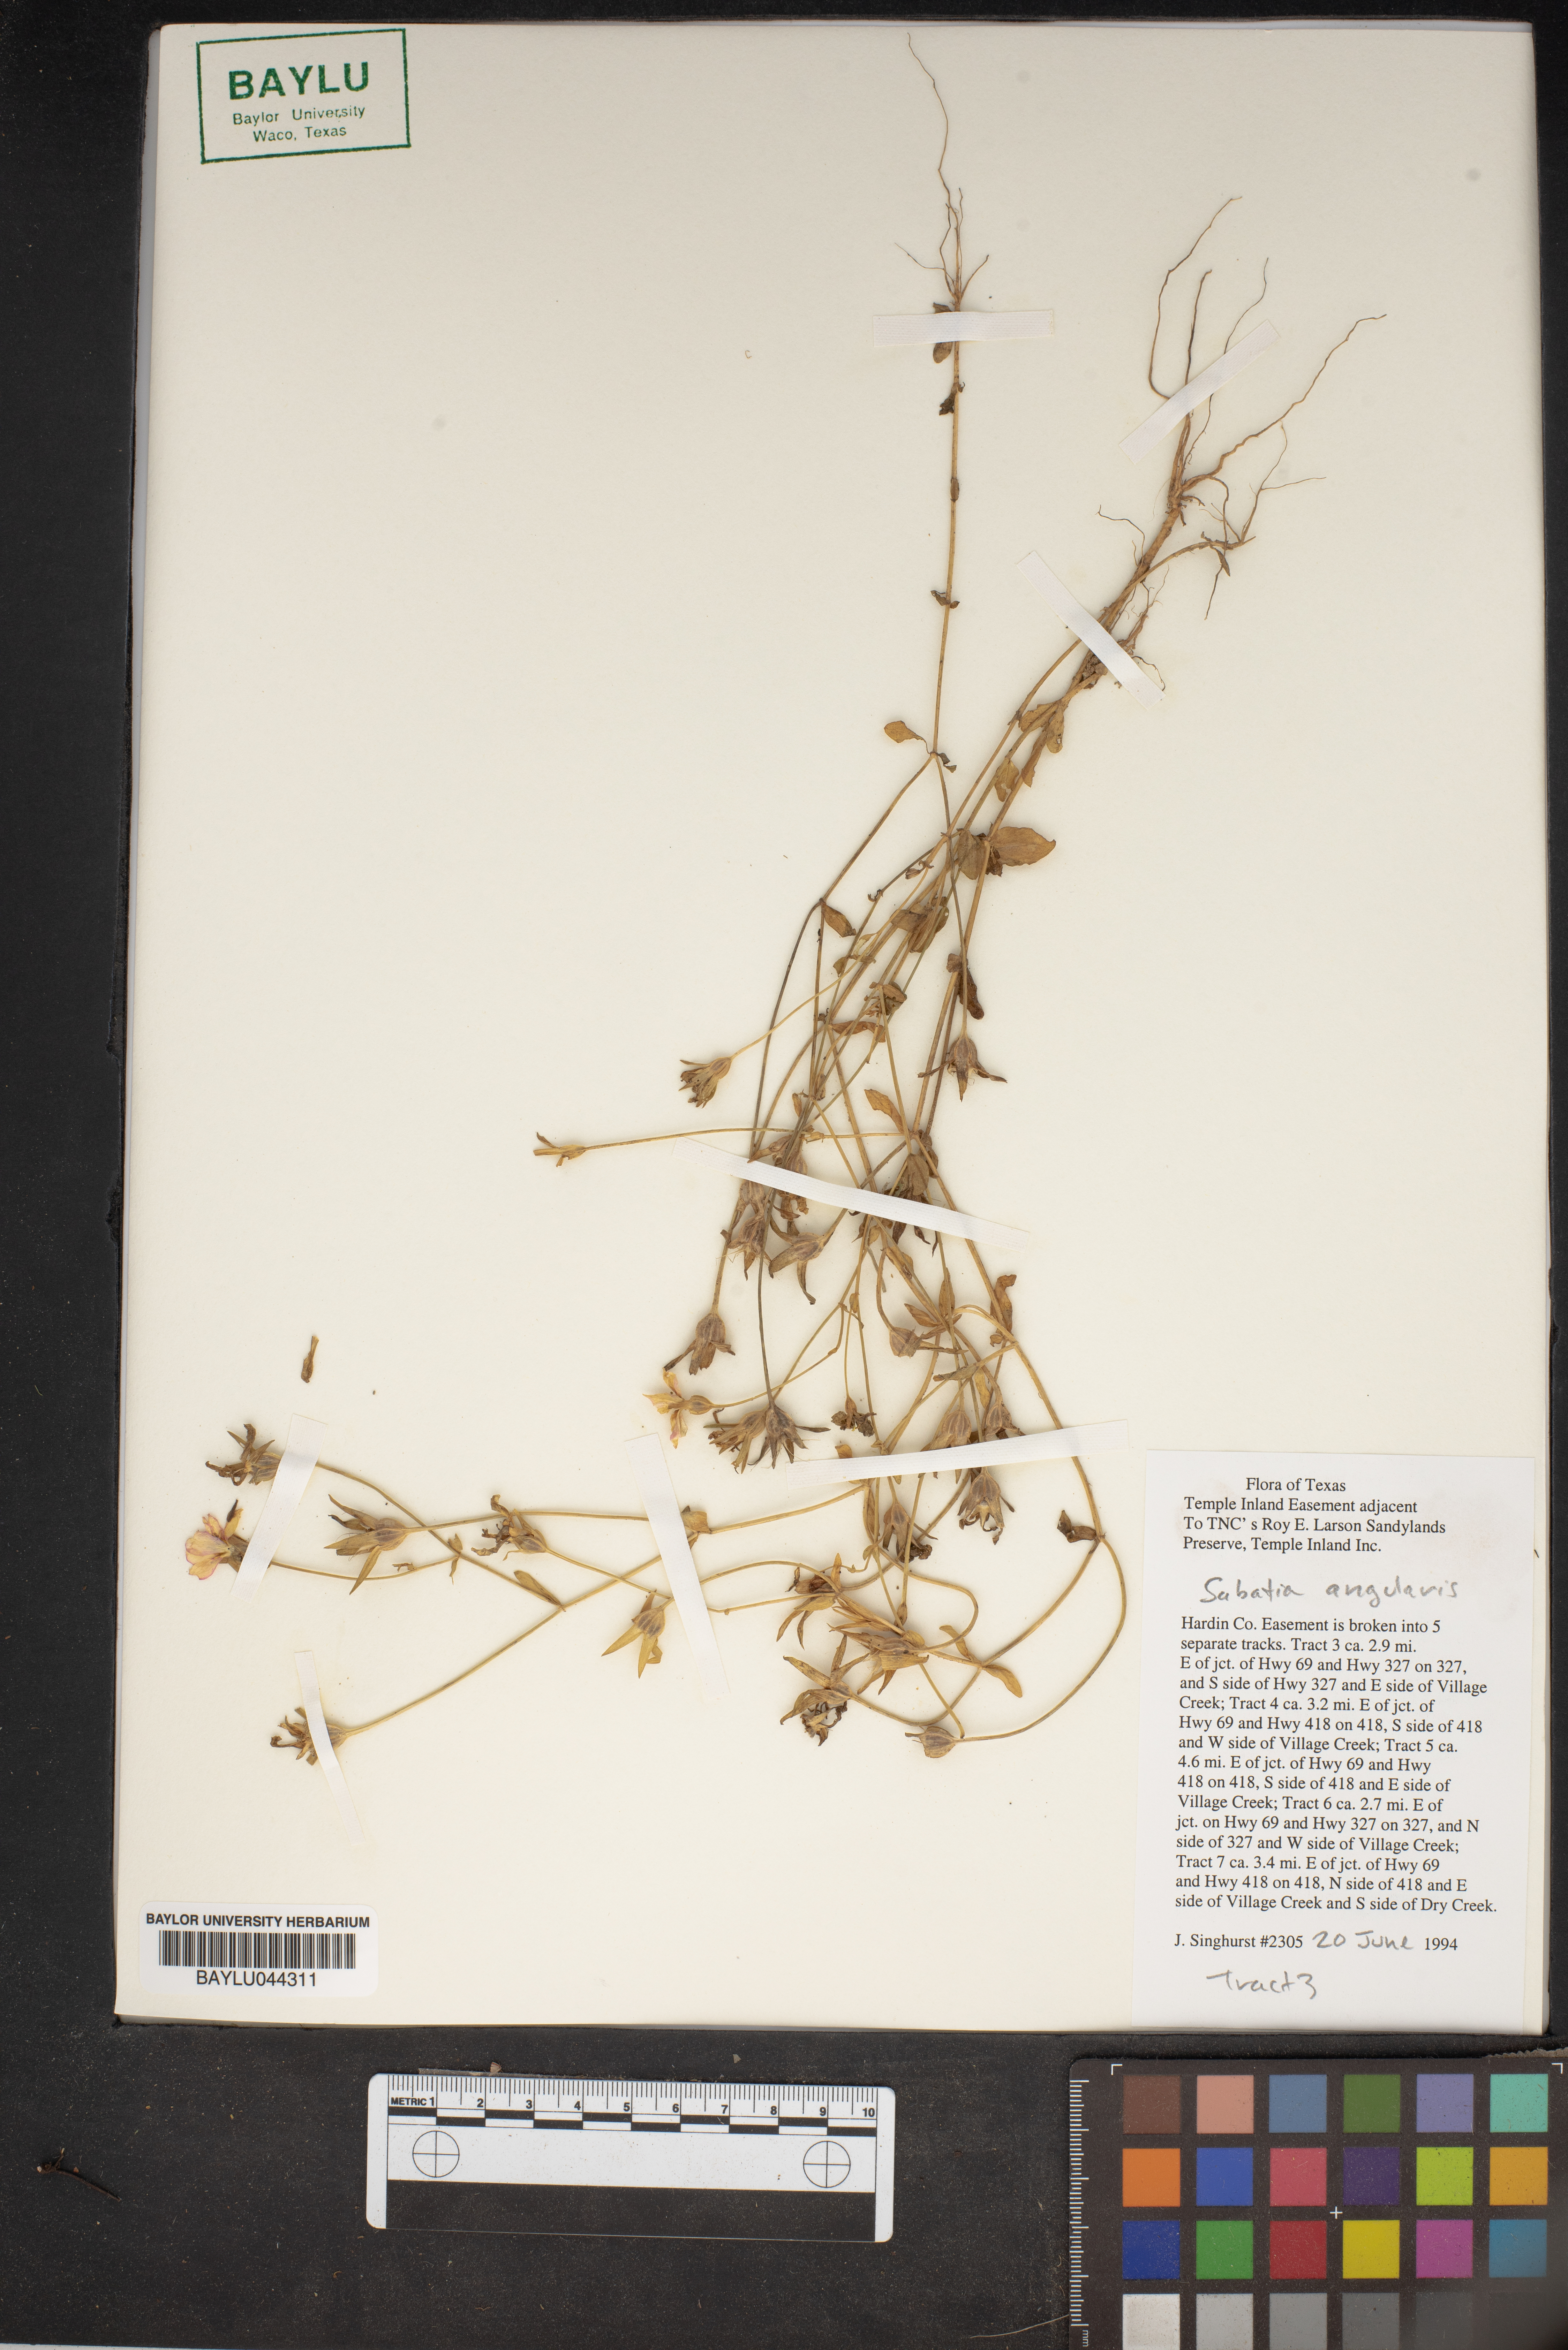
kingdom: Plantae
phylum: Tracheophyta
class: Magnoliopsida
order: Gentianales
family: Gentianaceae
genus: Sabatia
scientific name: Sabatia angularis
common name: Rose-pink
